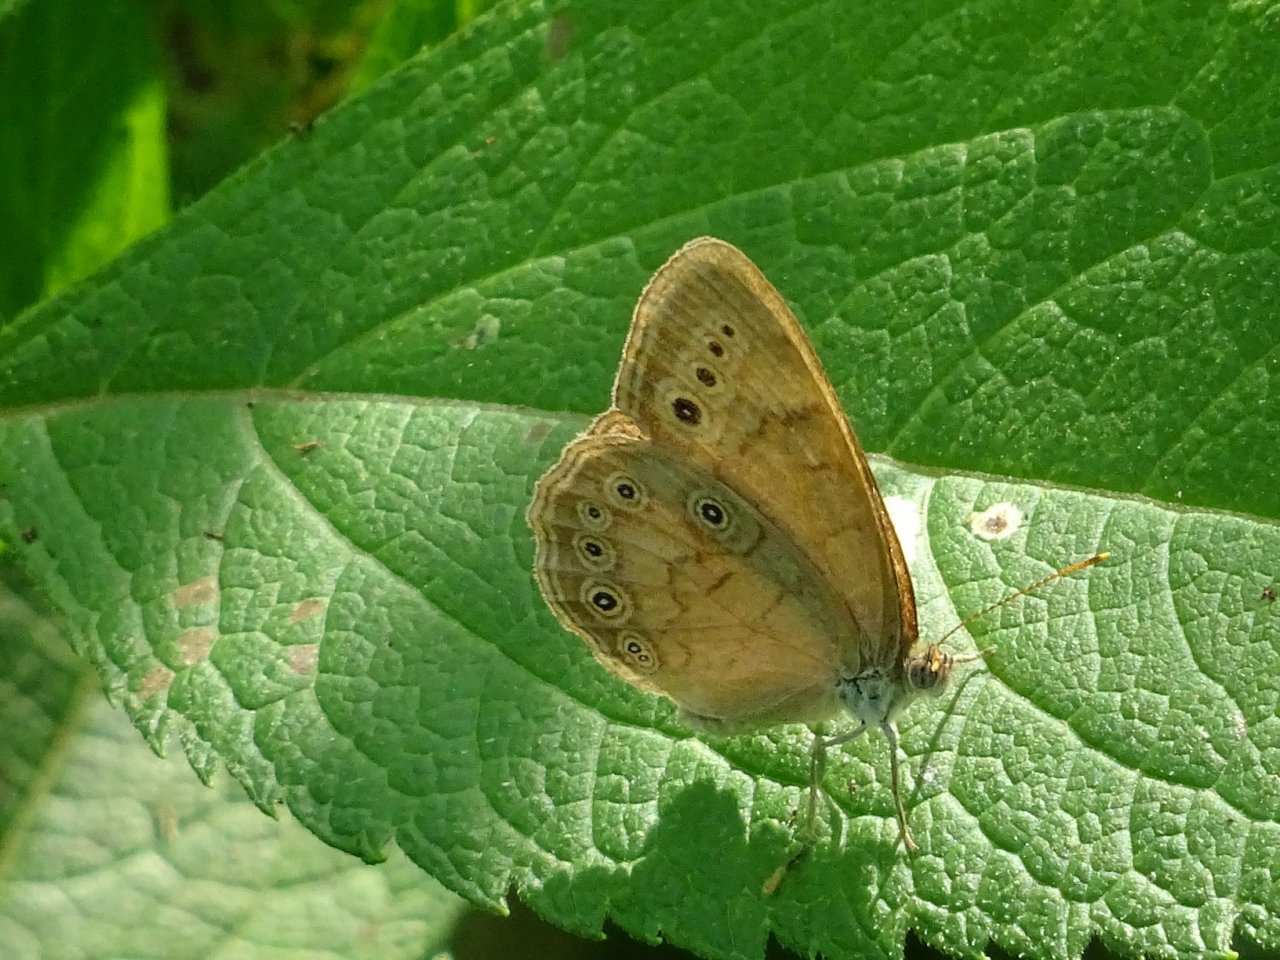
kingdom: Animalia
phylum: Arthropoda
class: Insecta
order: Lepidoptera
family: Nymphalidae
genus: Lethe
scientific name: Lethe eurydice
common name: Eyed Brown
